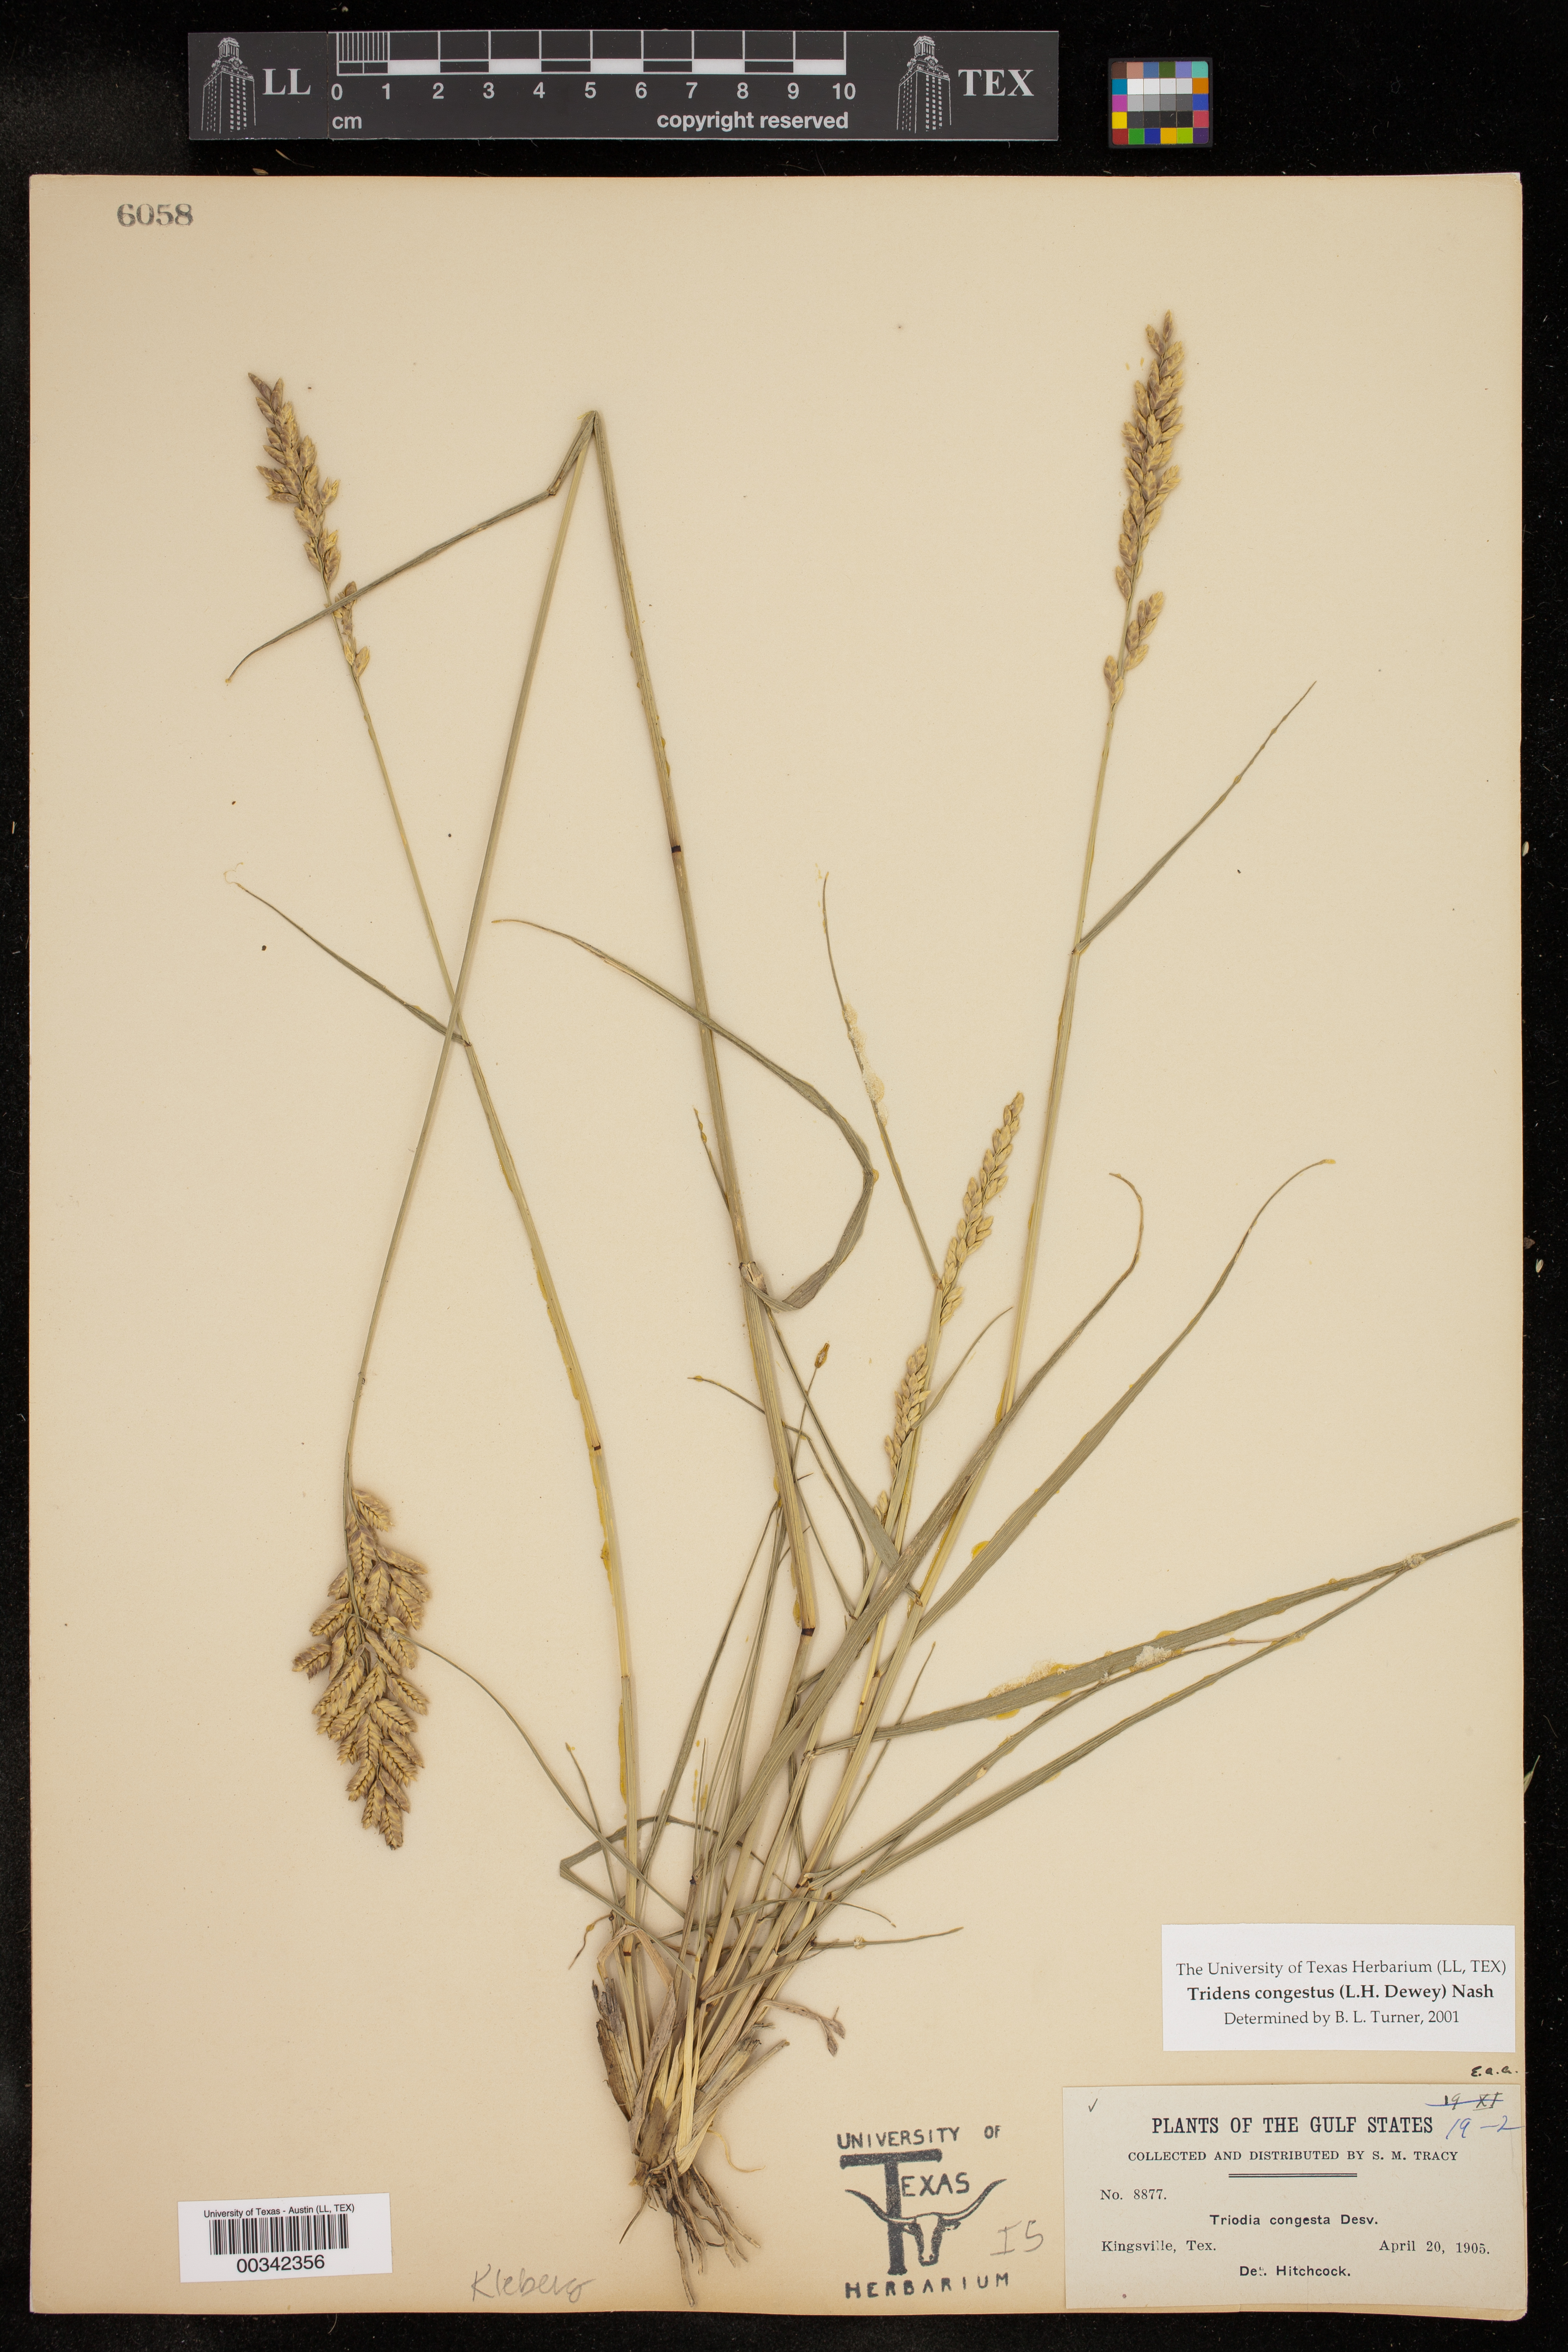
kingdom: Plantae
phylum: Tracheophyta
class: Liliopsida
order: Poales
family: Poaceae
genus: Tridens
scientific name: Tridens congestus
